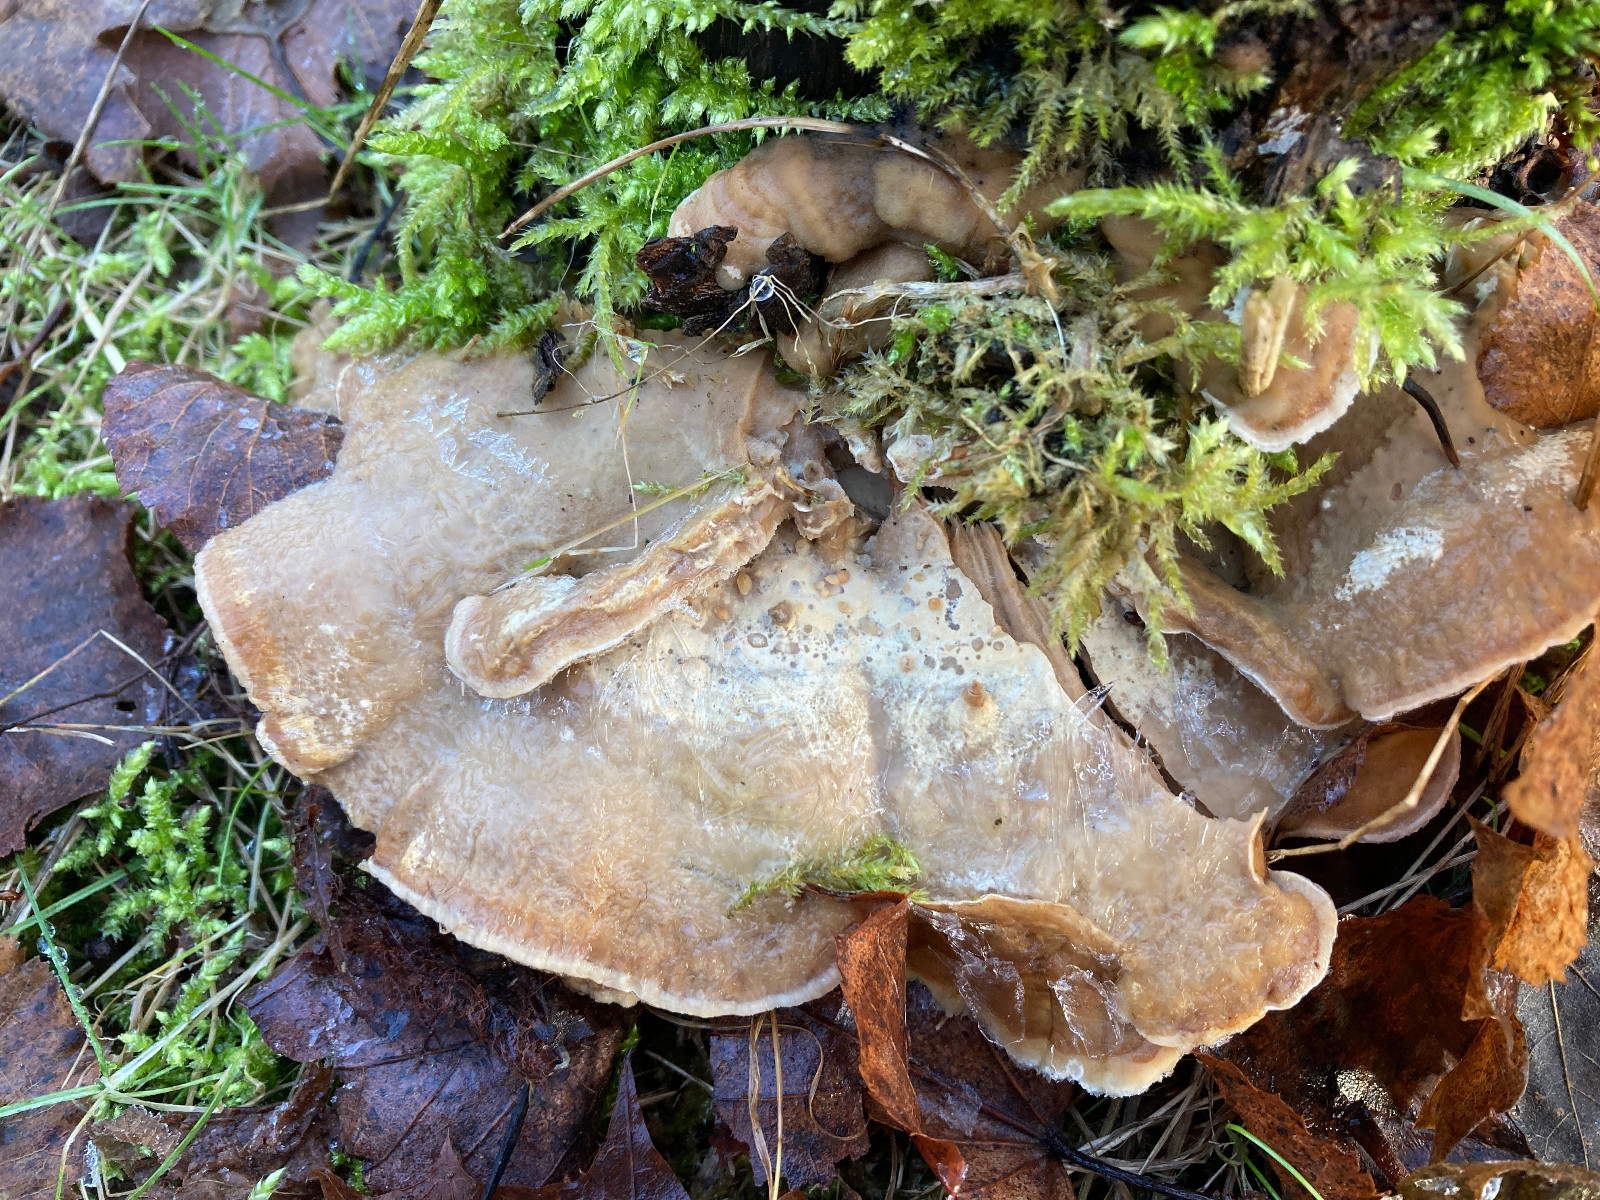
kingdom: Fungi
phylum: Basidiomycota
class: Agaricomycetes
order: Polyporales
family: Phanerochaetaceae
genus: Bjerkandera
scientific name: Bjerkandera fumosa
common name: grågul sodporesvamp
